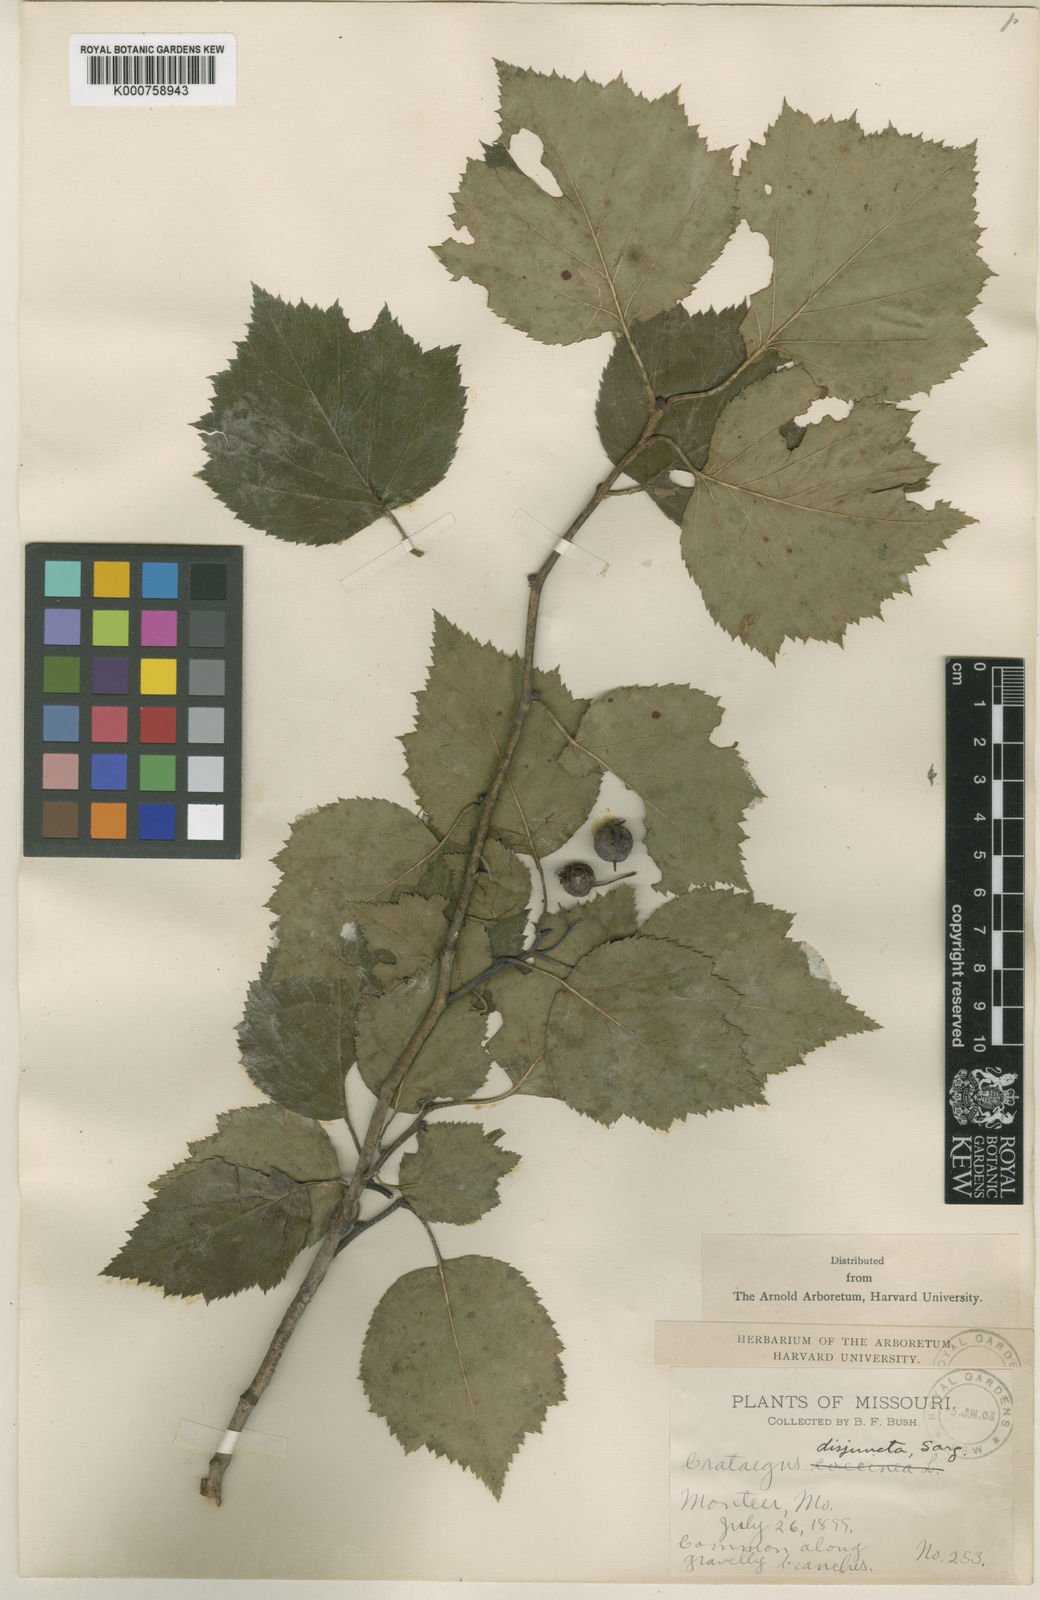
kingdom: Plantae
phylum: Tracheophyta
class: Magnoliopsida
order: Rosales
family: Rosaceae
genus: Crataegus
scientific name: Crataegus pruinosa
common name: Waxy-fruit hawthorn
